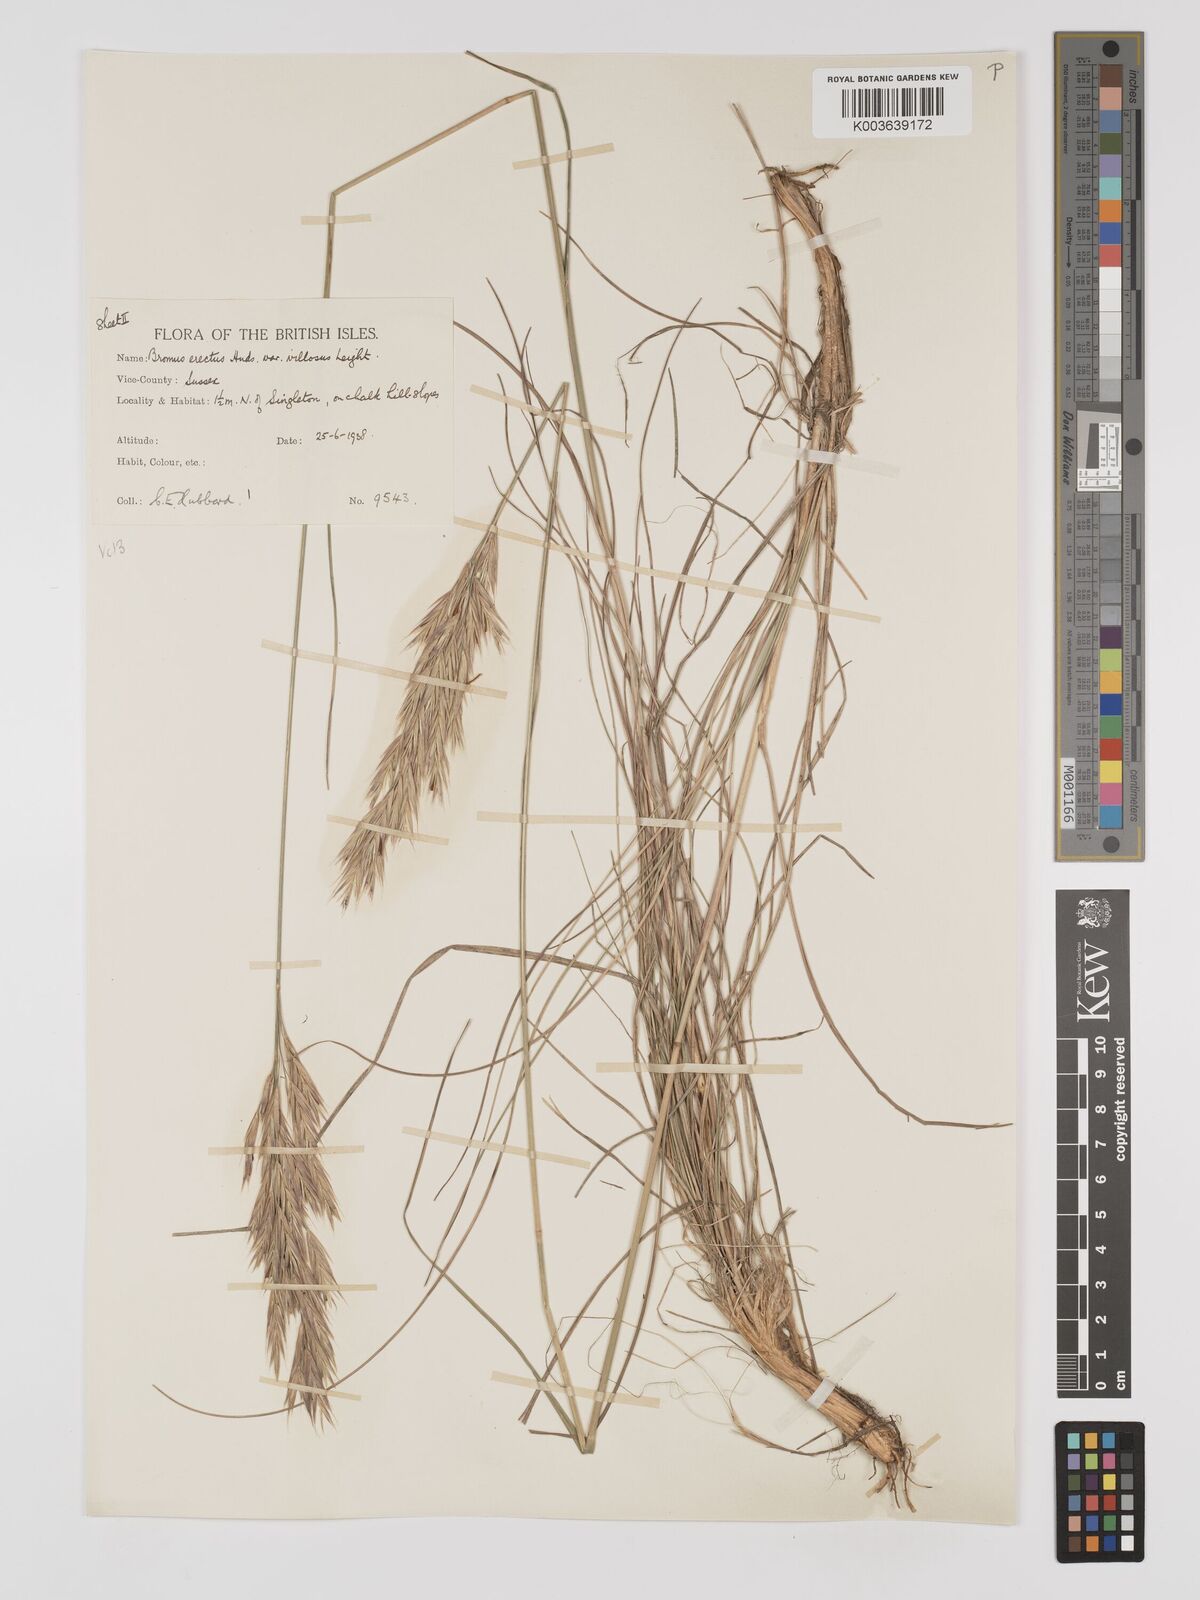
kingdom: Plantae
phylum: Tracheophyta
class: Liliopsida
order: Poales
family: Poaceae
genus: Bromus
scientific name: Bromus erectus
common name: Erect brome
